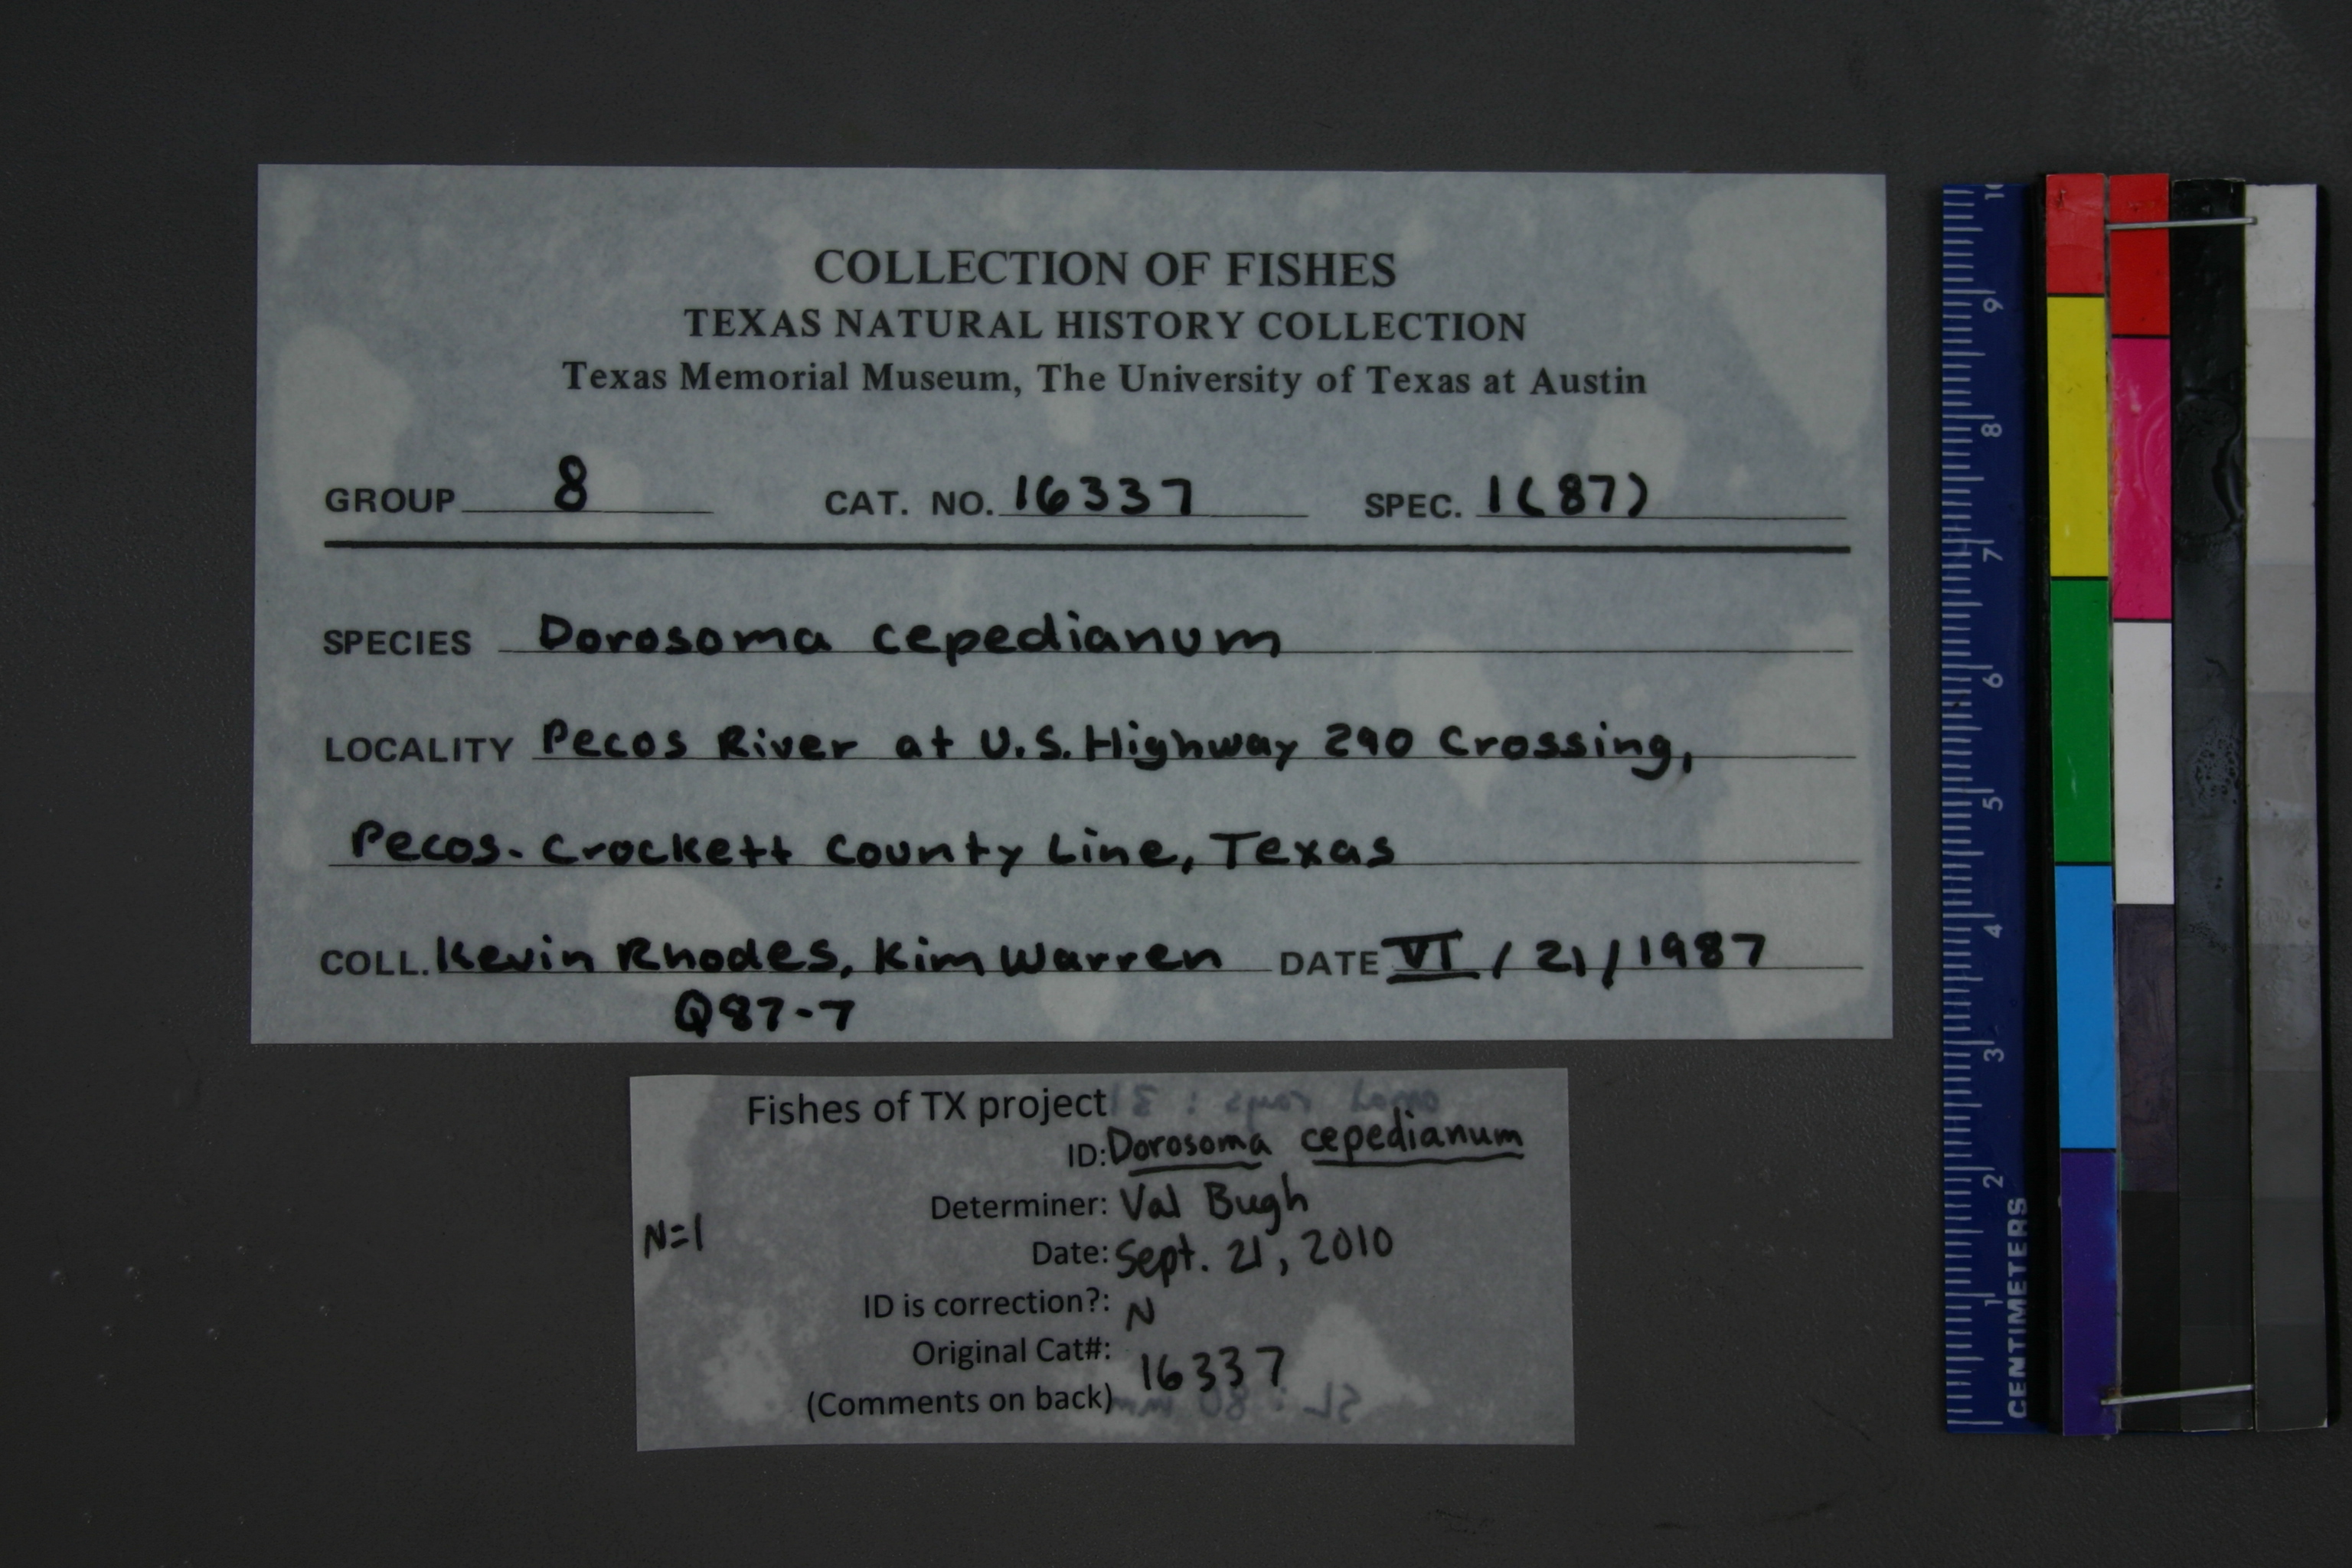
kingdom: Animalia
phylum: Chordata
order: Clupeiformes
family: Clupeidae
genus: Dorosoma
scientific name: Dorosoma cepedianum
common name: Gizzard shad
